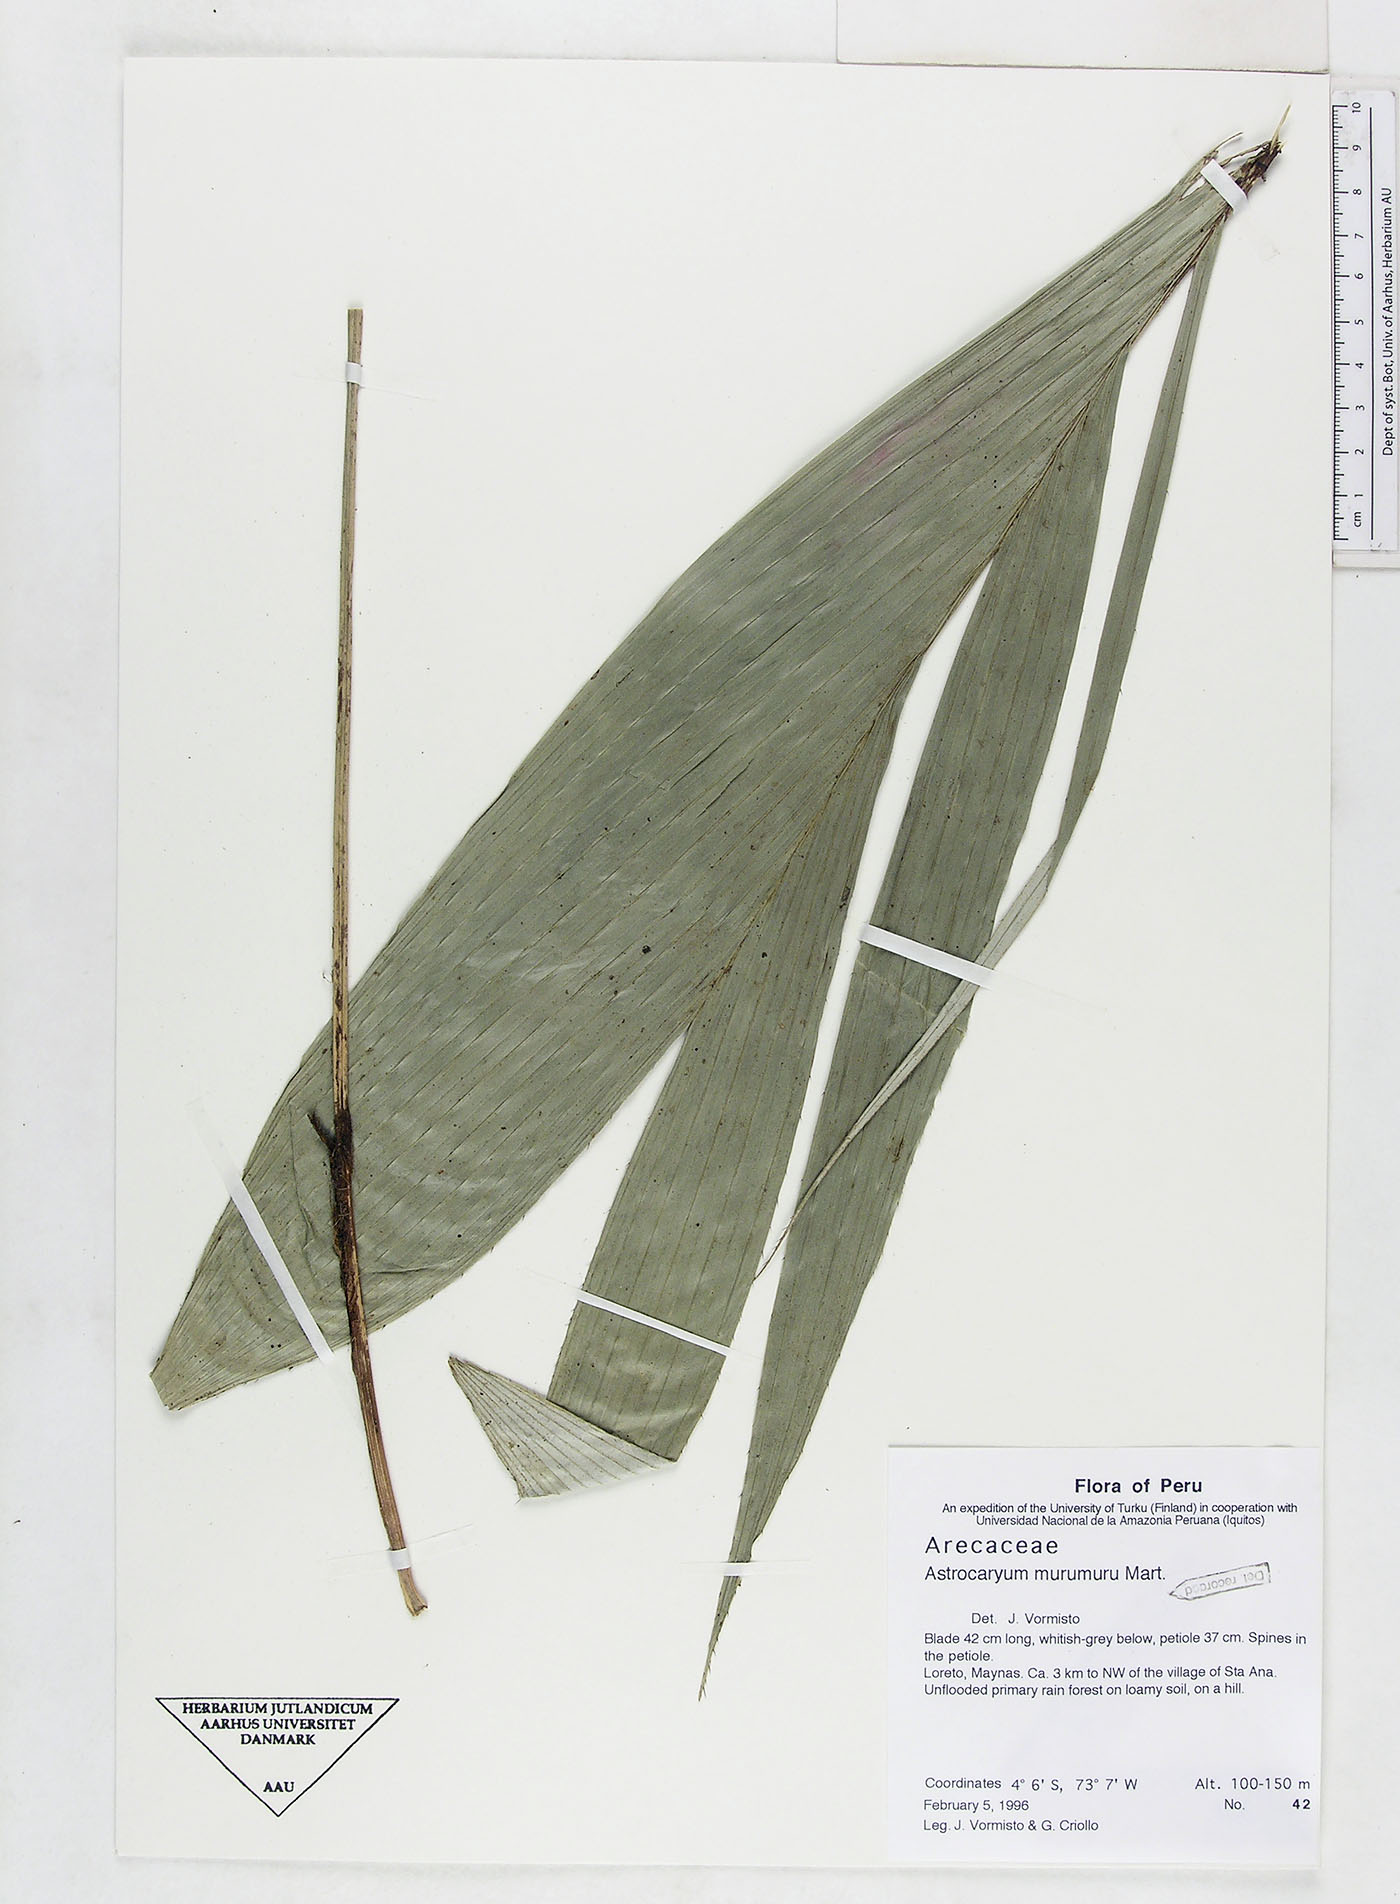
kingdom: Plantae
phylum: Tracheophyta
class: Liliopsida
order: Arecales
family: Arecaceae
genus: Astrocaryum
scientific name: Astrocaryum murumuru
